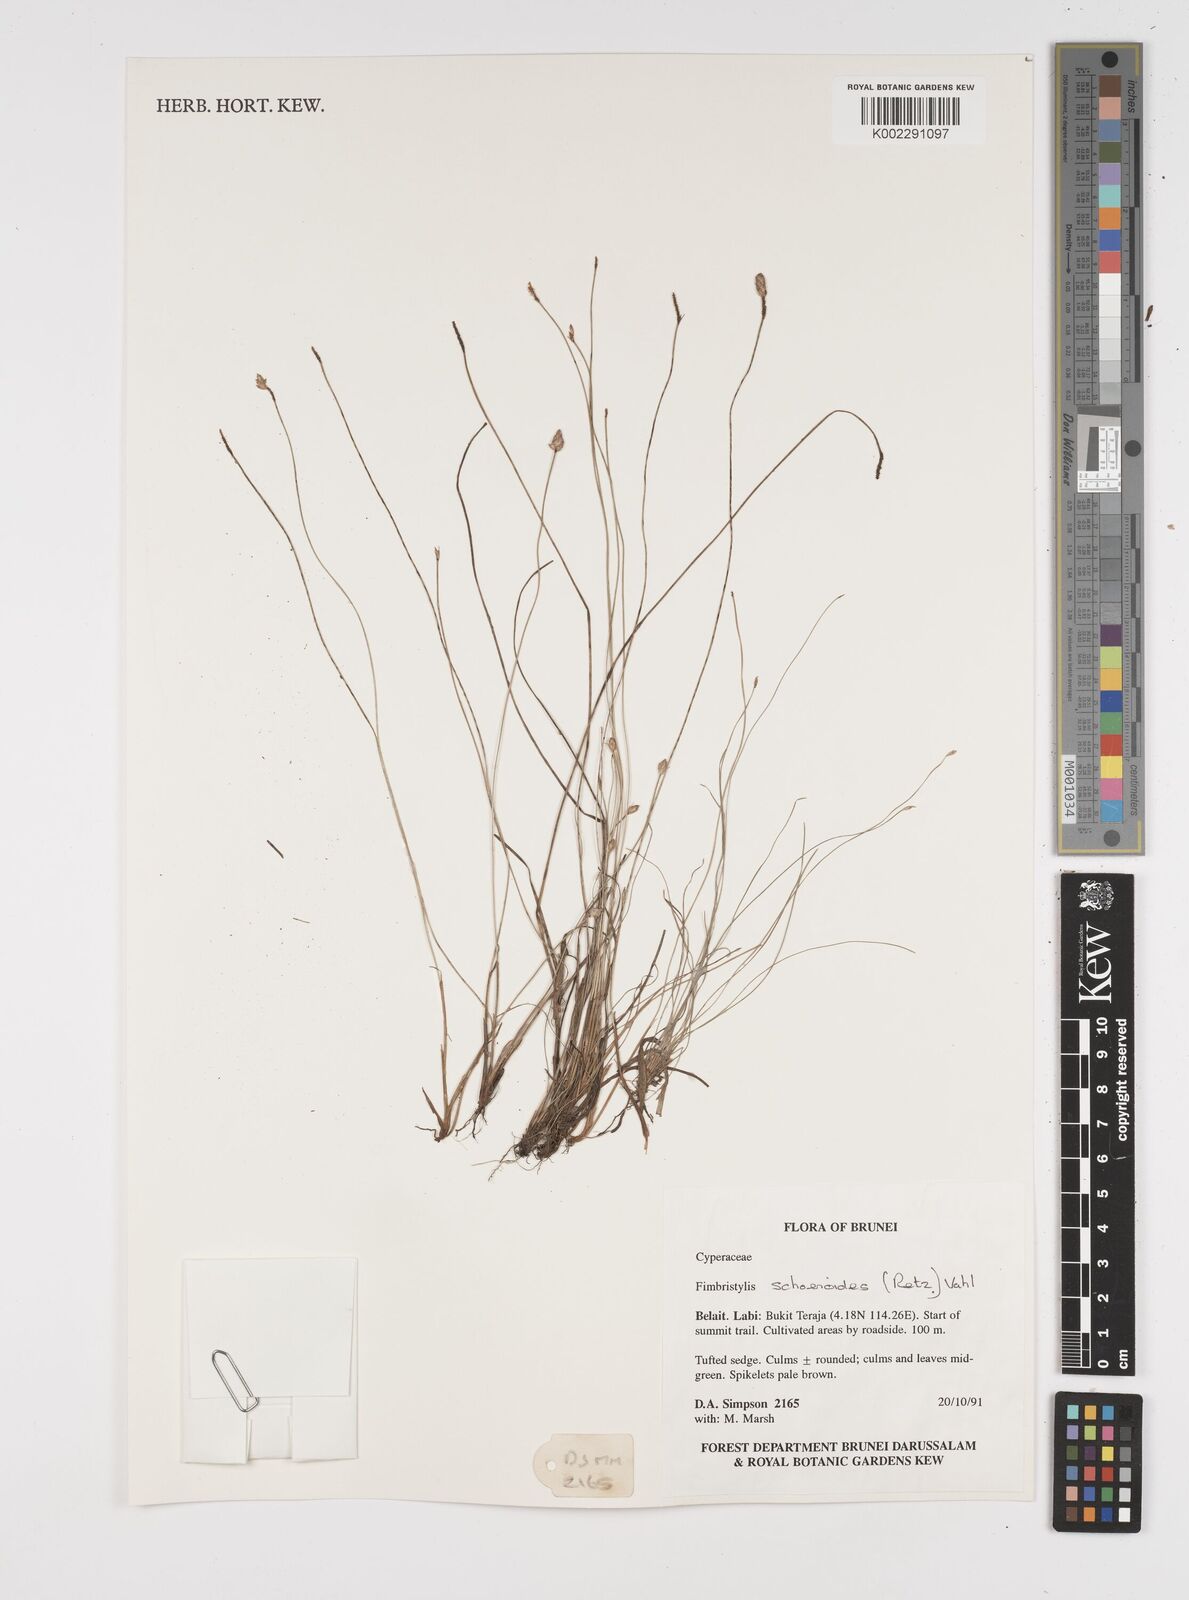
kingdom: Plantae
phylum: Tracheophyta
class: Liliopsida
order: Poales
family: Cyperaceae
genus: Fimbristylis
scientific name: Fimbristylis schoenoides
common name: Ditch fimbry
